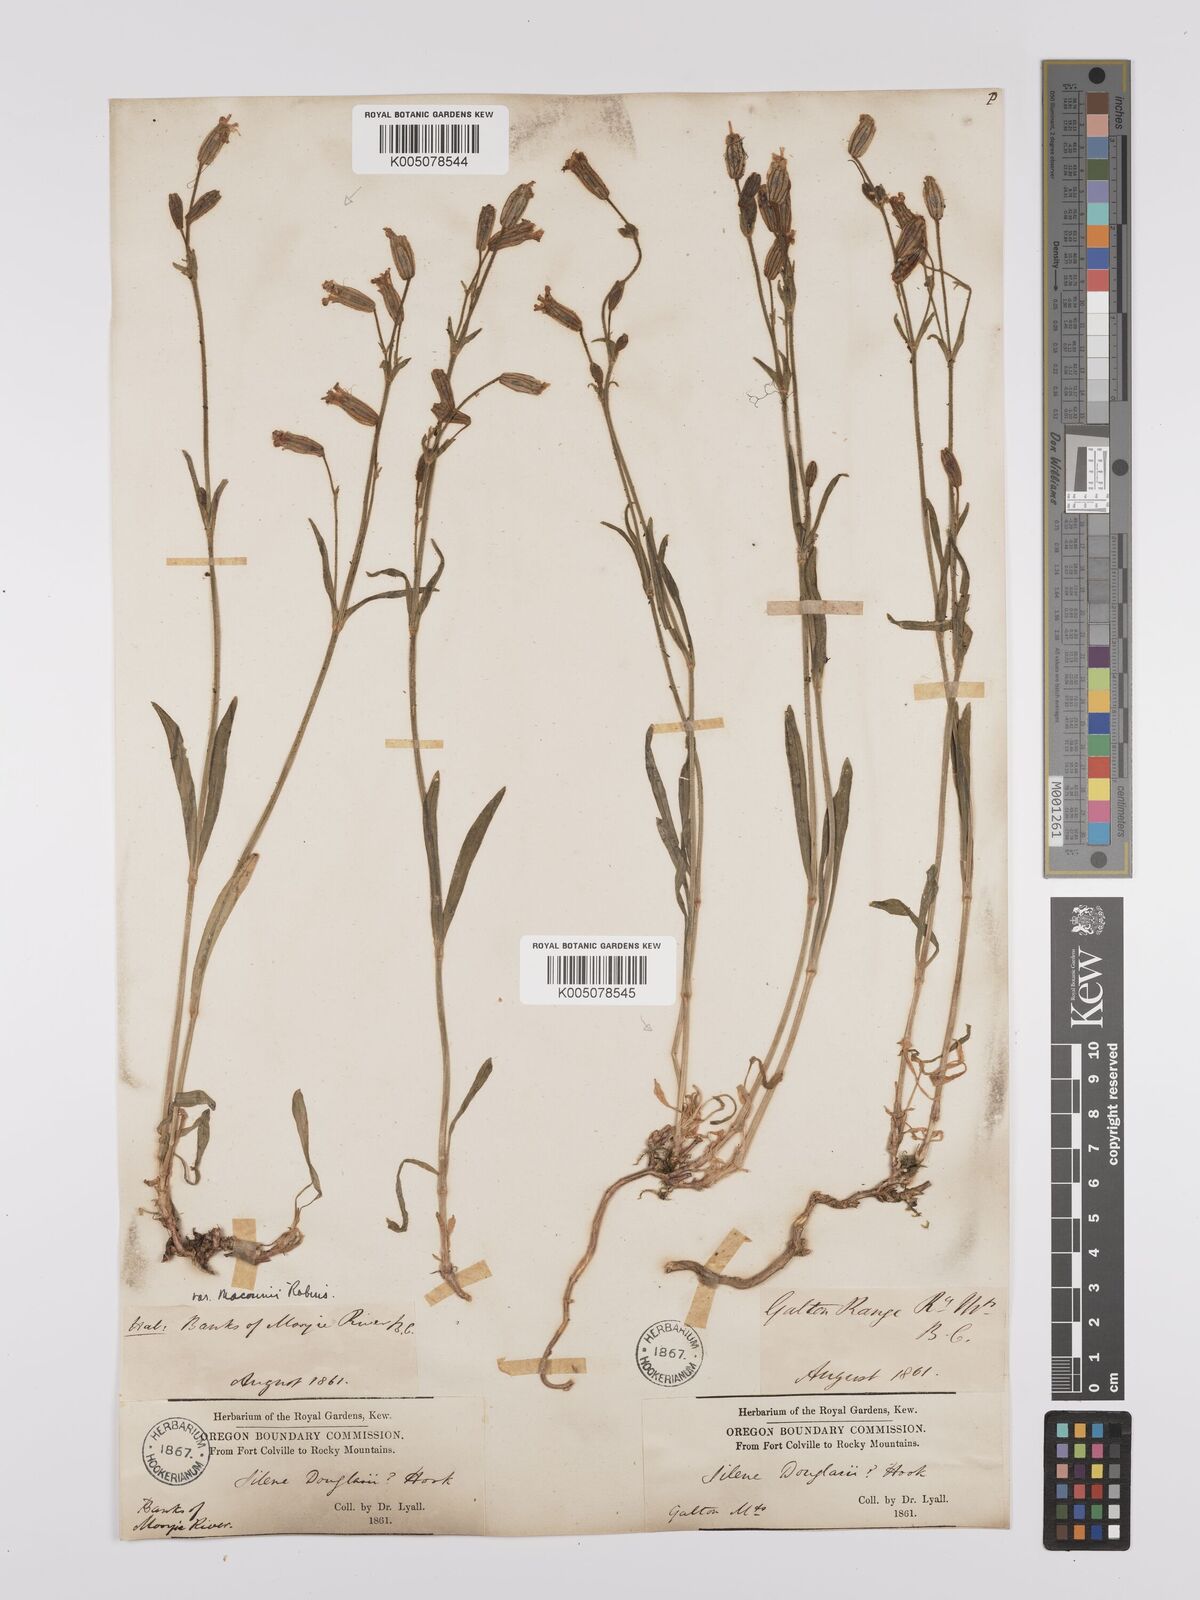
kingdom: Plantae
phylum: Tracheophyta
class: Magnoliopsida
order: Caryophyllales
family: Caryophyllaceae
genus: Silene
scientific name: Silene parryi
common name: Parry's campion
